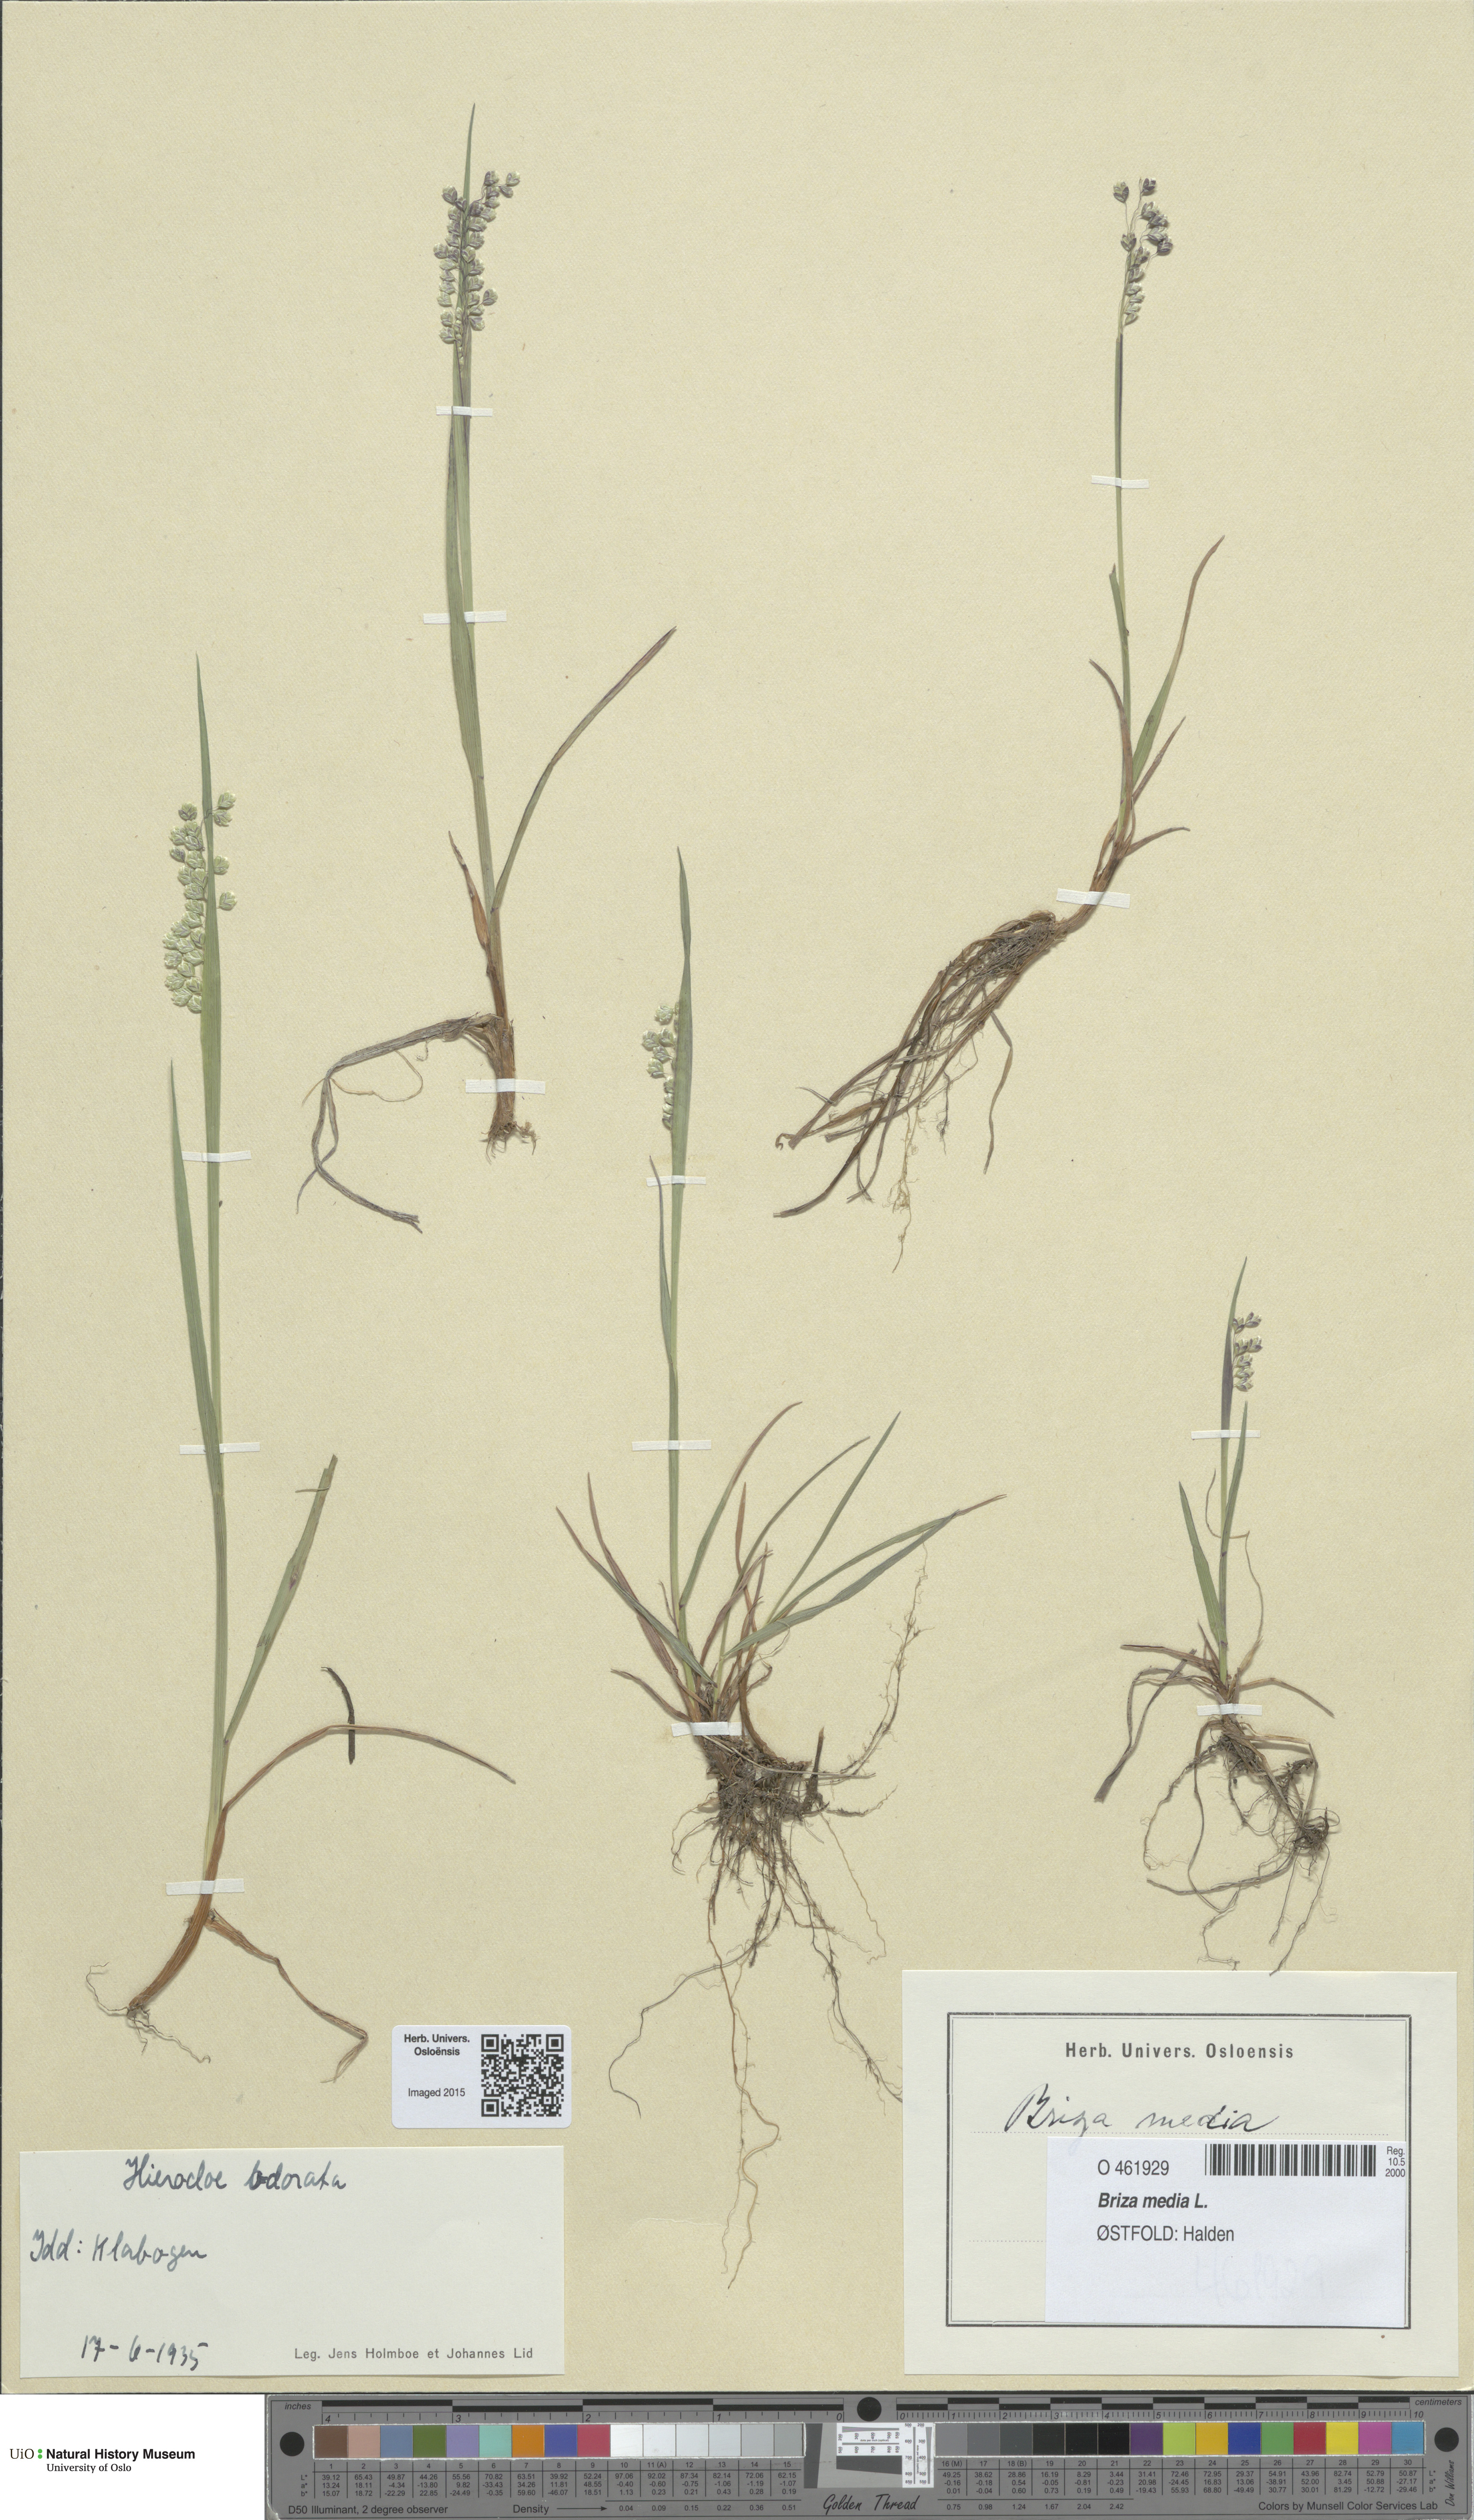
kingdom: Plantae
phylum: Tracheophyta
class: Liliopsida
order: Poales
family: Poaceae
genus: Briza
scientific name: Briza media
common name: Quaking grass
